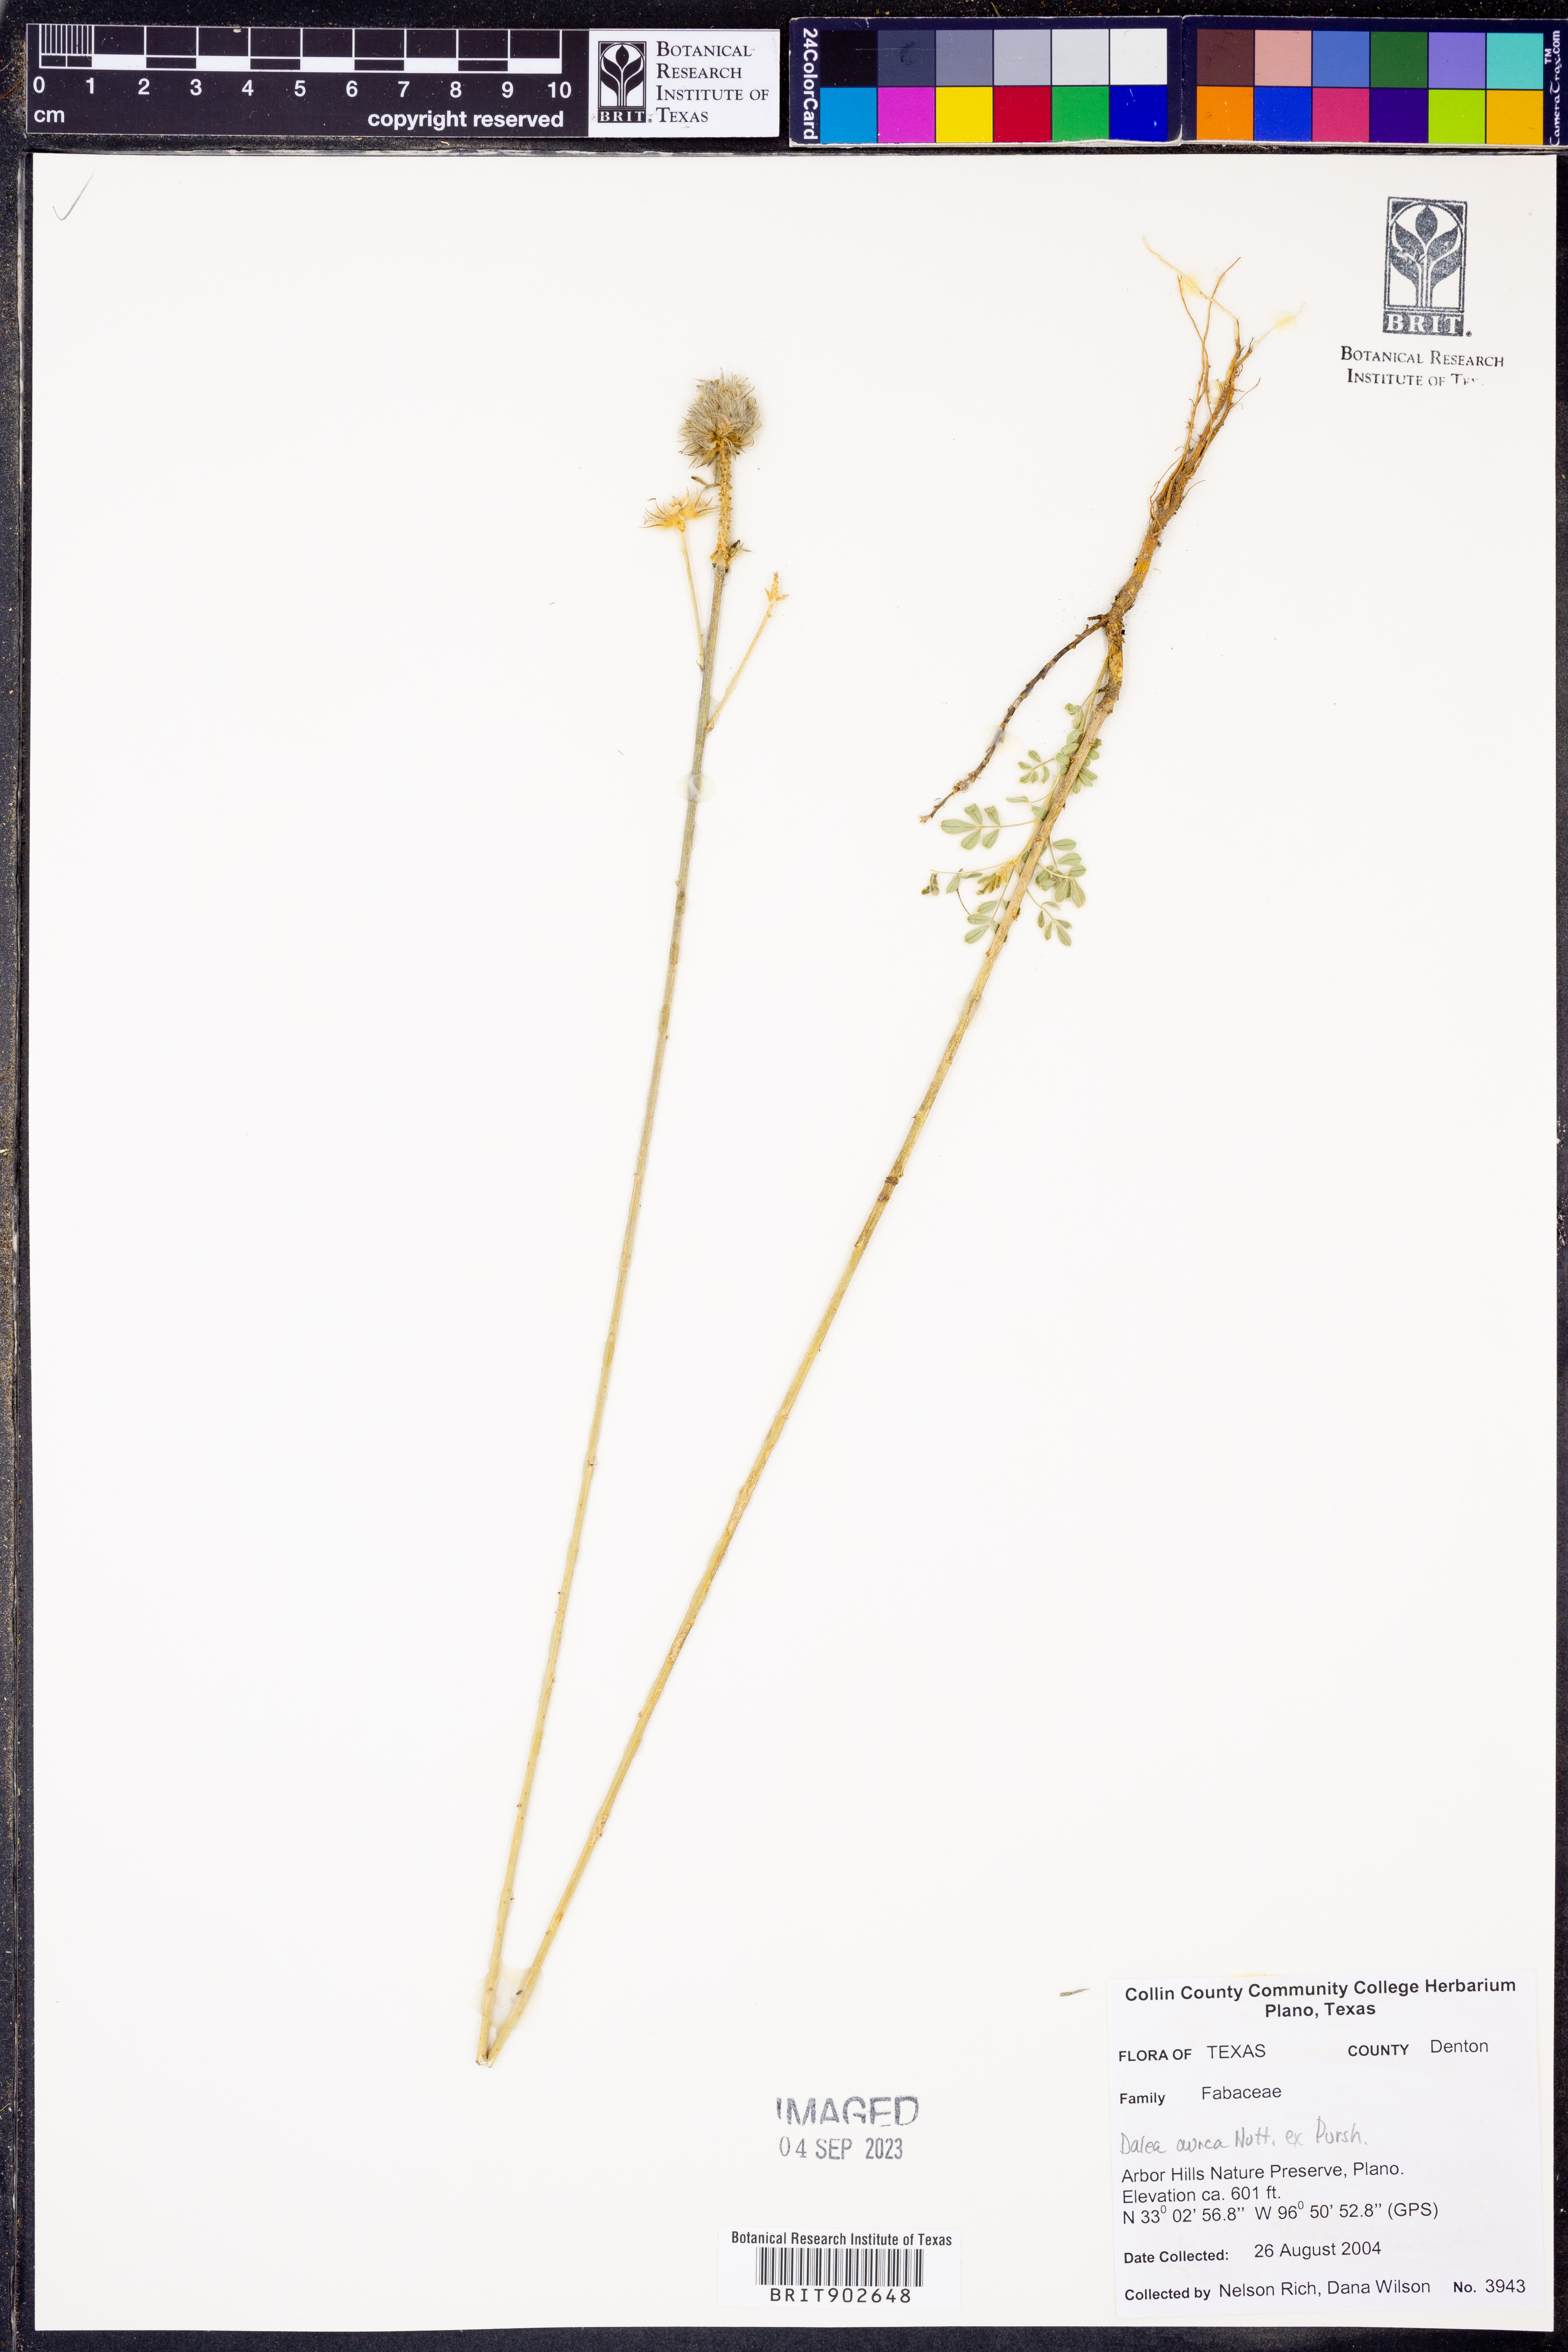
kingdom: Plantae
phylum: Tracheophyta
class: Magnoliopsida
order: Fabales
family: Fabaceae
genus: Dalea
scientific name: Dalea aurea
